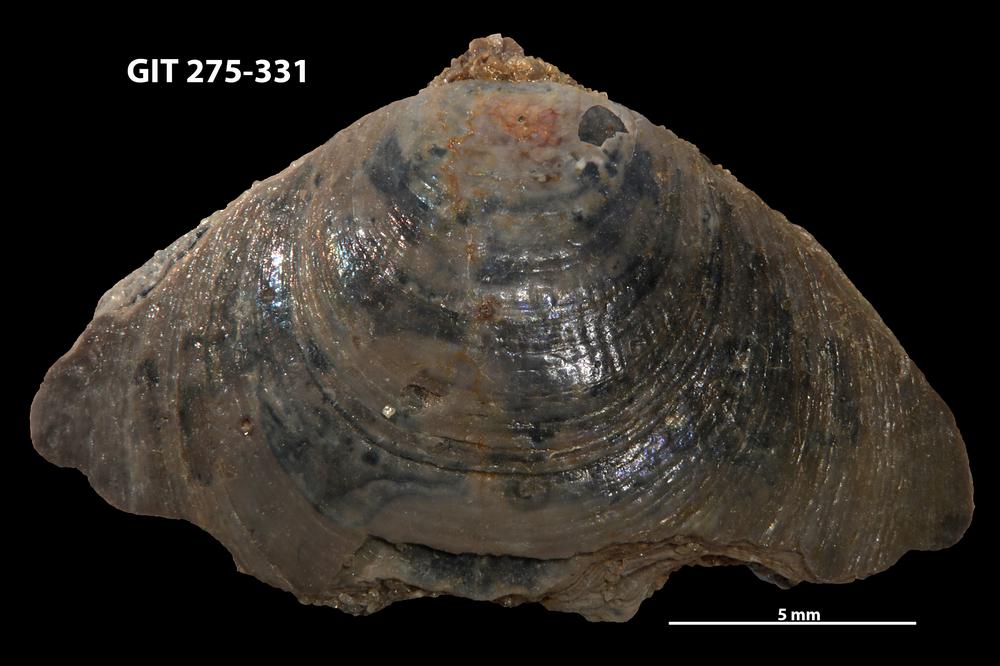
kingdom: Animalia
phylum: Brachiopoda
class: Lingulata
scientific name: Lingulata
